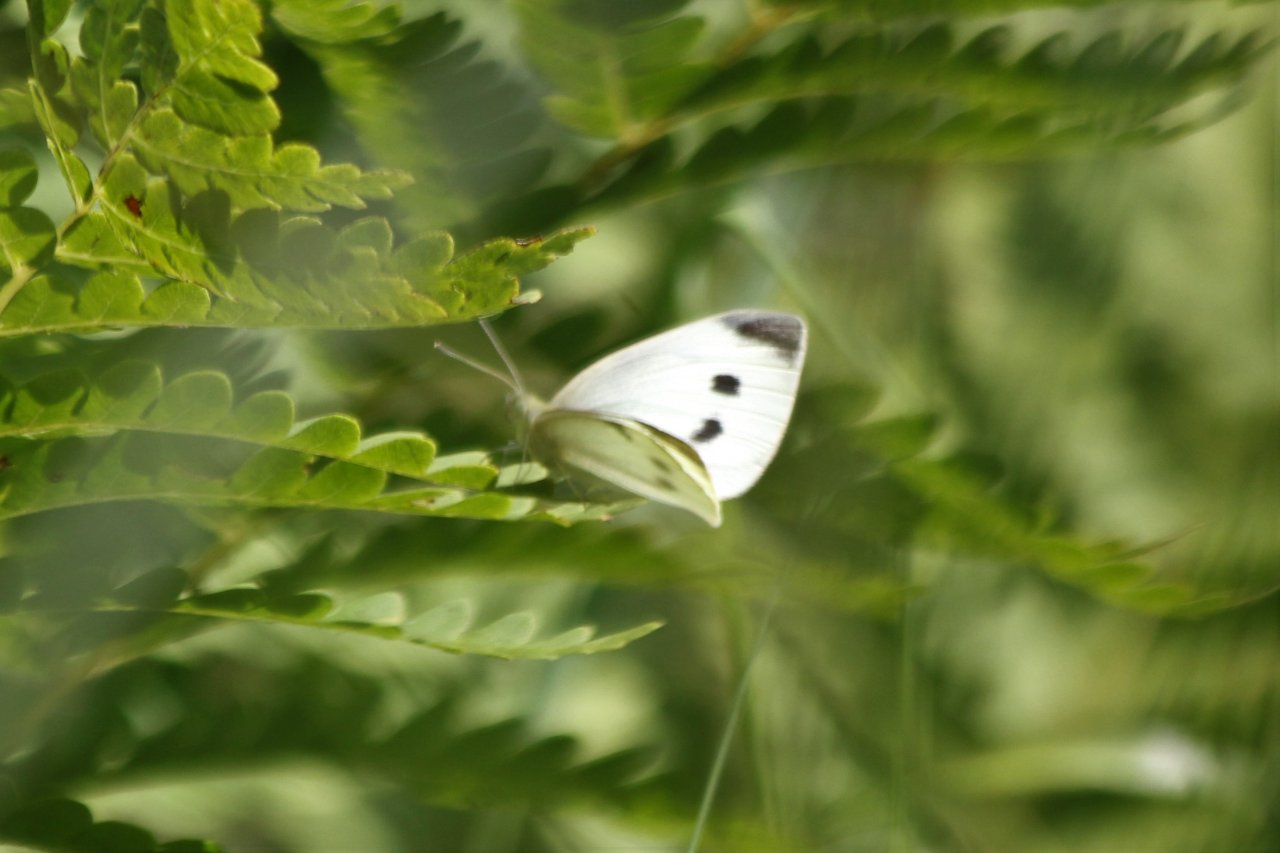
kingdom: Animalia
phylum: Arthropoda
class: Insecta
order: Lepidoptera
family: Pieridae
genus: Pieris
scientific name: Pieris rapae
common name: Cabbage White
